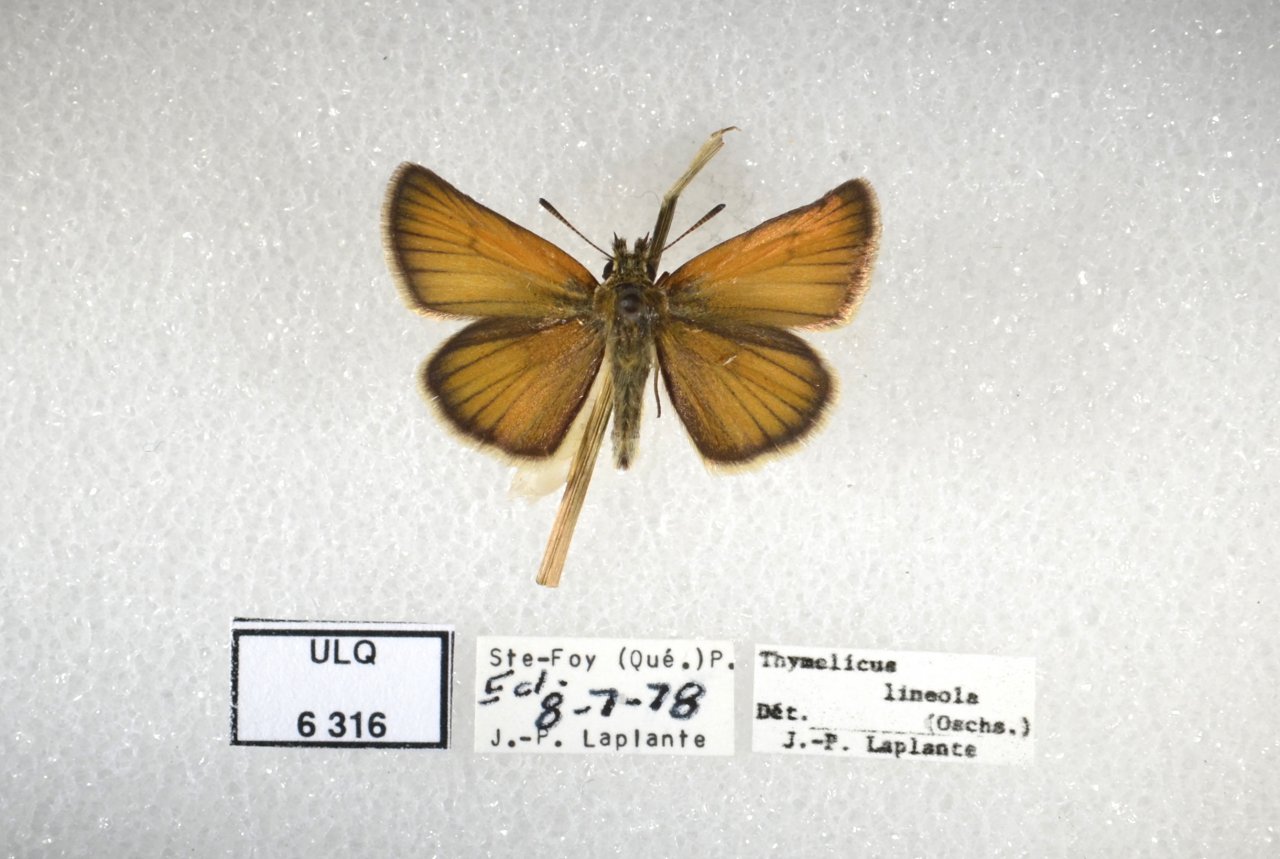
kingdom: Animalia
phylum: Arthropoda
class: Insecta
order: Lepidoptera
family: Hesperiidae
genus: Thymelicus
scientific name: Thymelicus lineola
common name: European Skipper
